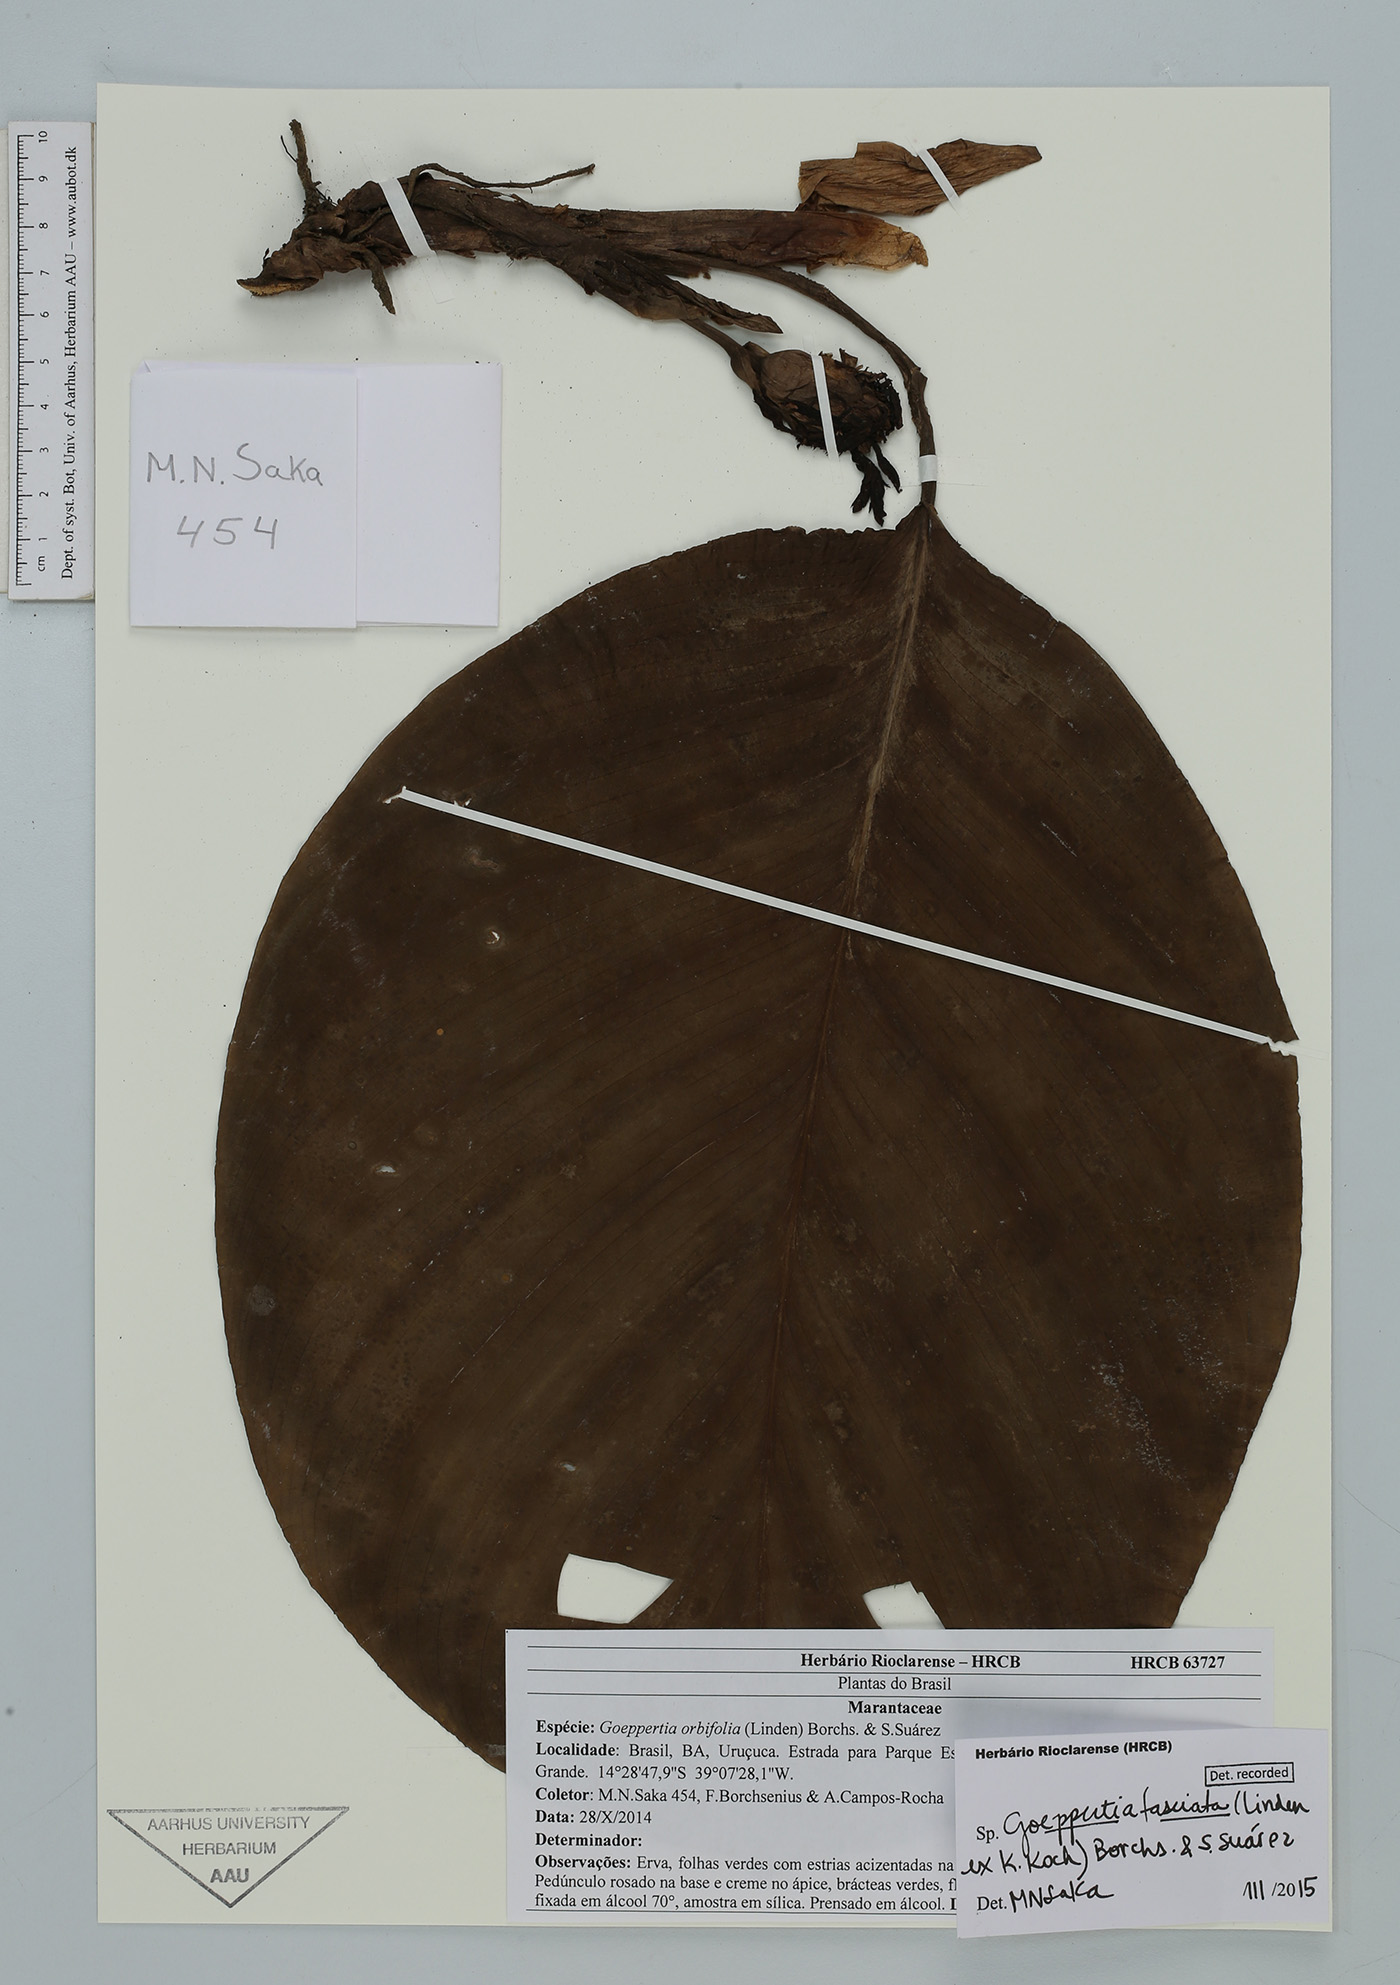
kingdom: Plantae
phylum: Tracheophyta
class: Liliopsida
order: Zingiberales
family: Marantaceae
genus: Goeppertia
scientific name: Goeppertia fasciata
